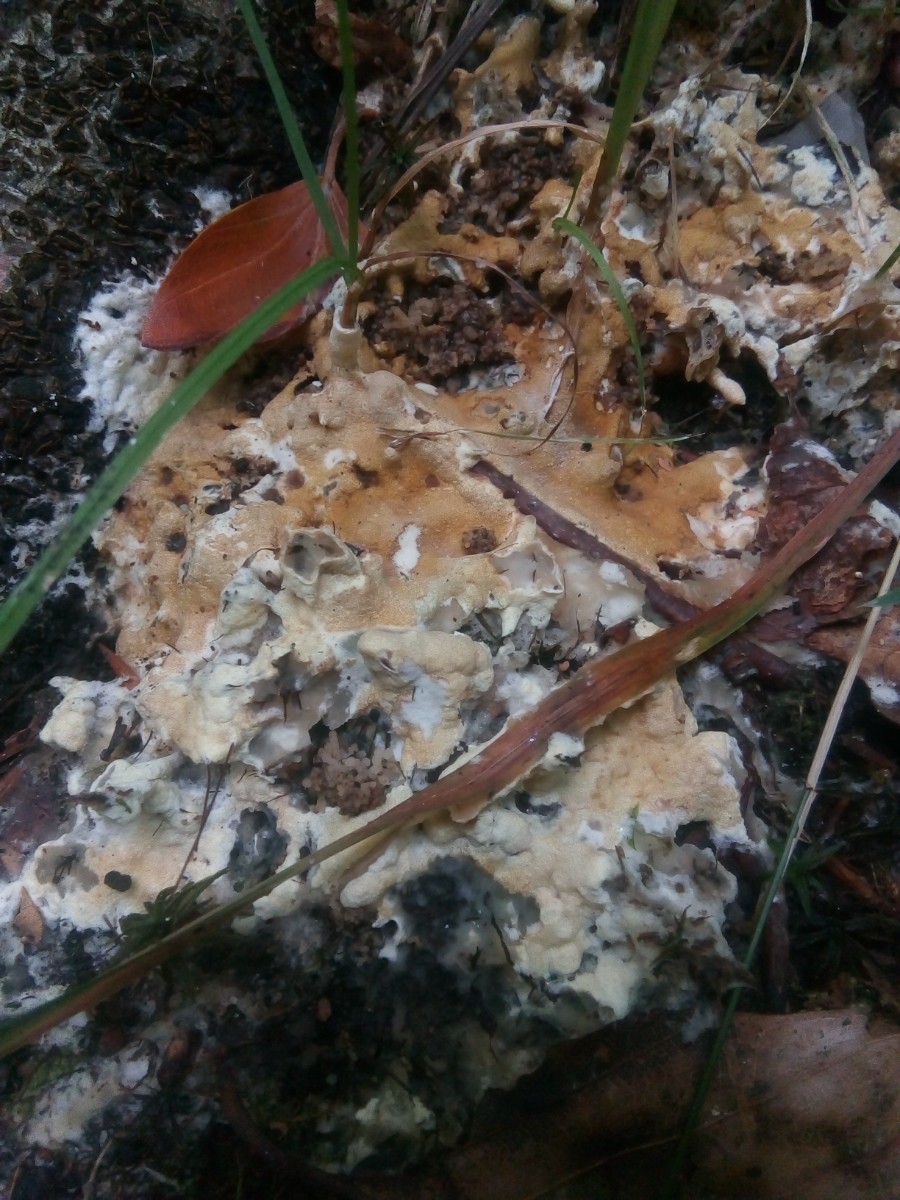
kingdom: Fungi
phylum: Ascomycota
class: Sordariomycetes
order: Hypocreales
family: Hypocreaceae
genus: Trichoderma
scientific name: Trichoderma citrinum
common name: udbredt kødkerne
